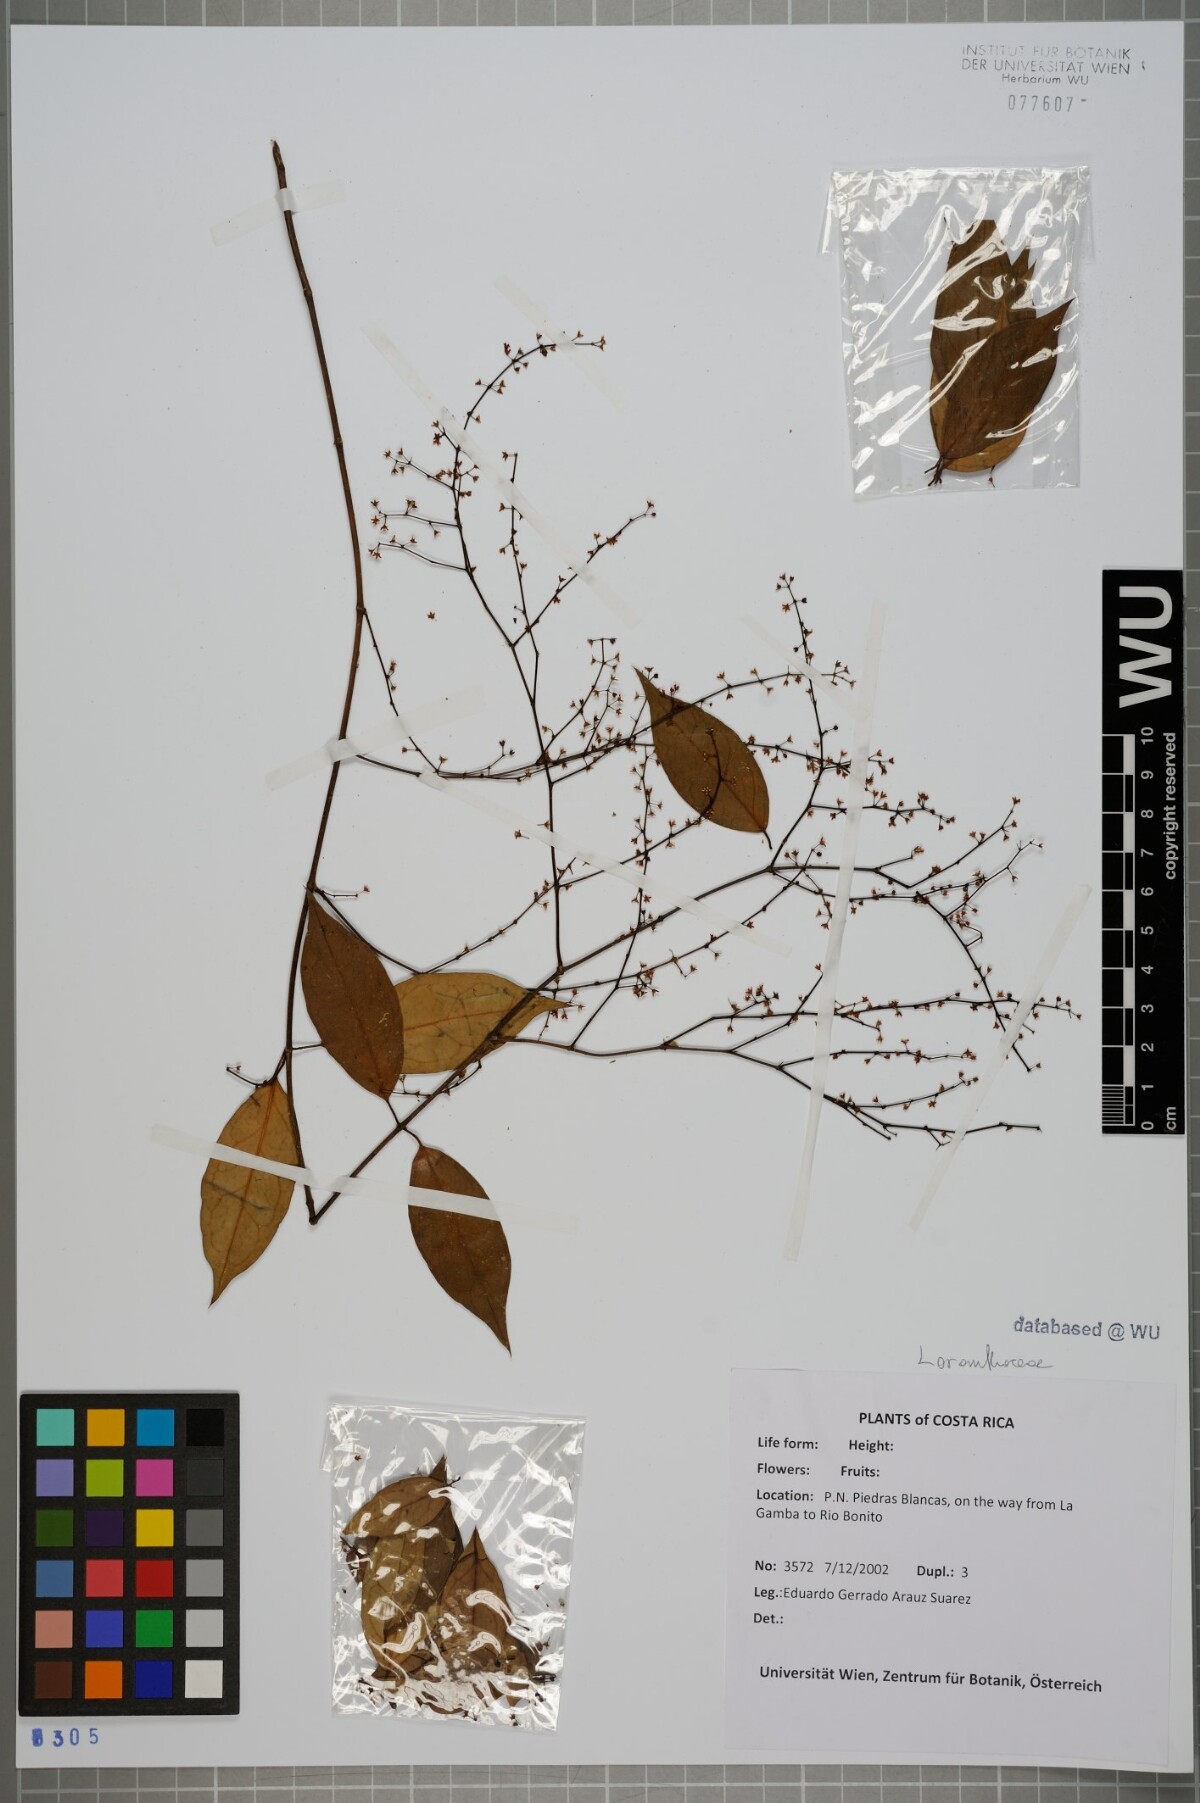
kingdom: Plantae
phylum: Tracheophyta
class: Magnoliopsida
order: Santalales
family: Loranthaceae
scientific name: Loranthaceae
